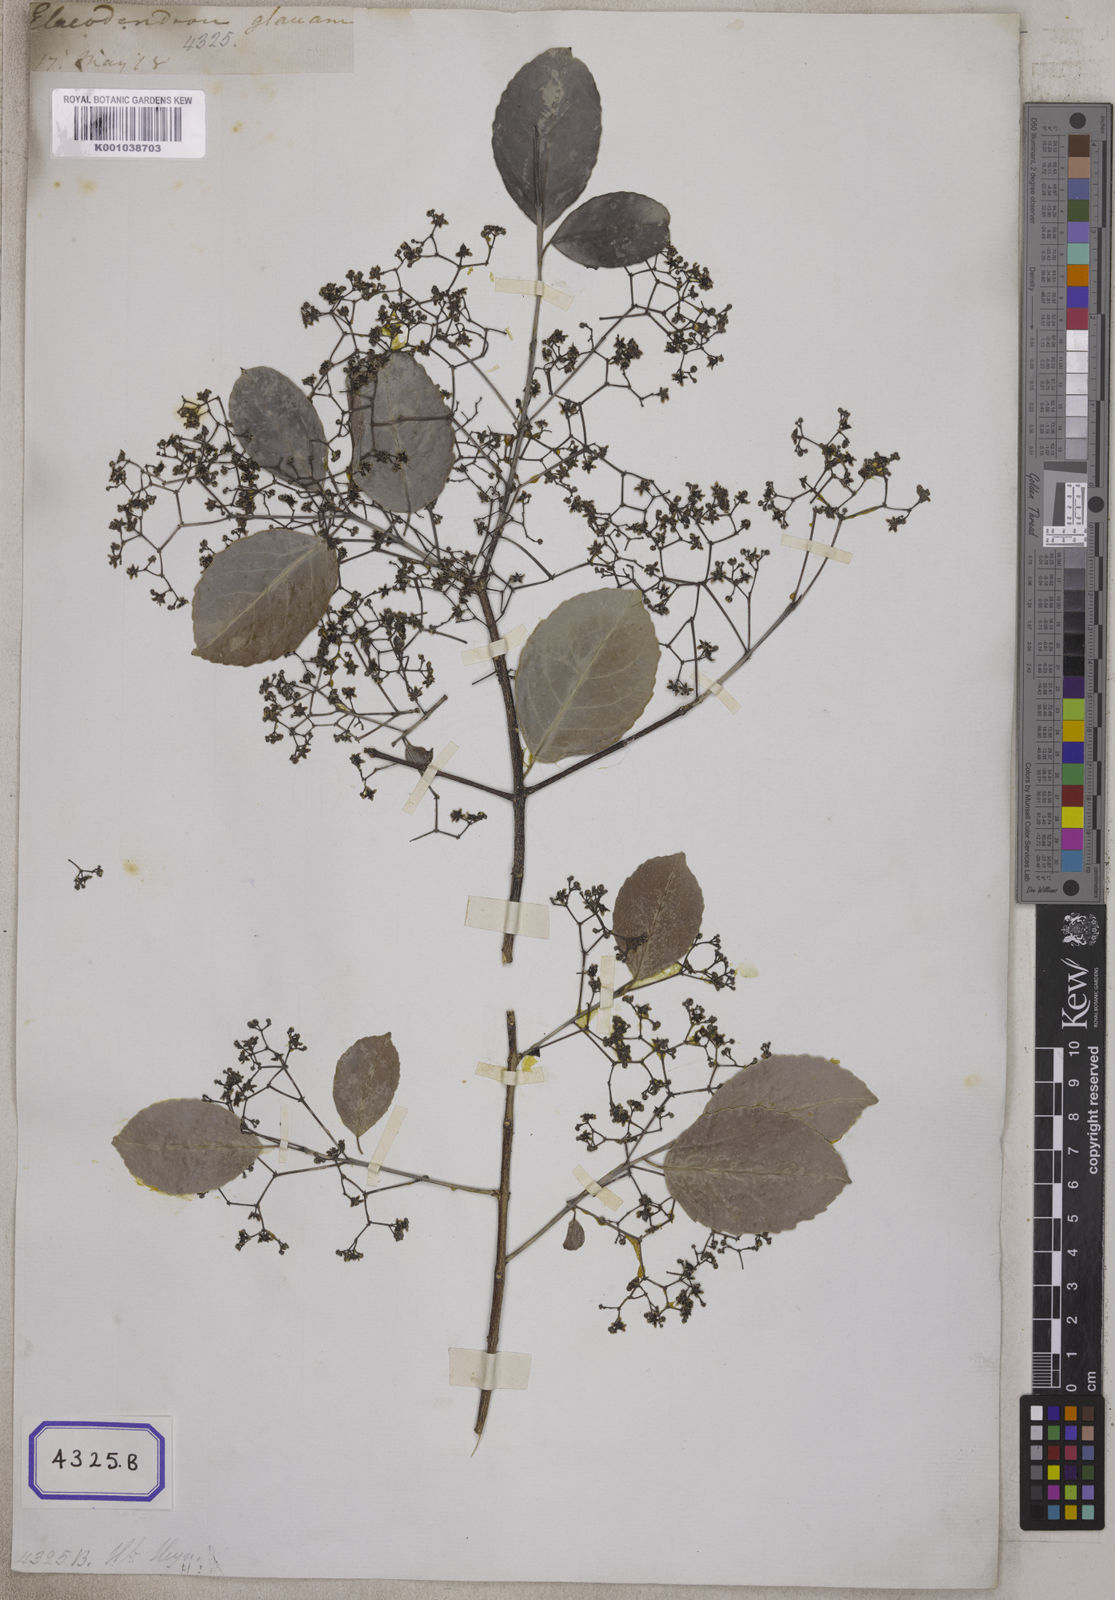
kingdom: Plantae
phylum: Tracheophyta
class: Magnoliopsida
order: Celastrales
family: Celastraceae
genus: Elaeodendron
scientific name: Elaeodendron glaucum
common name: Ceylon-tea
